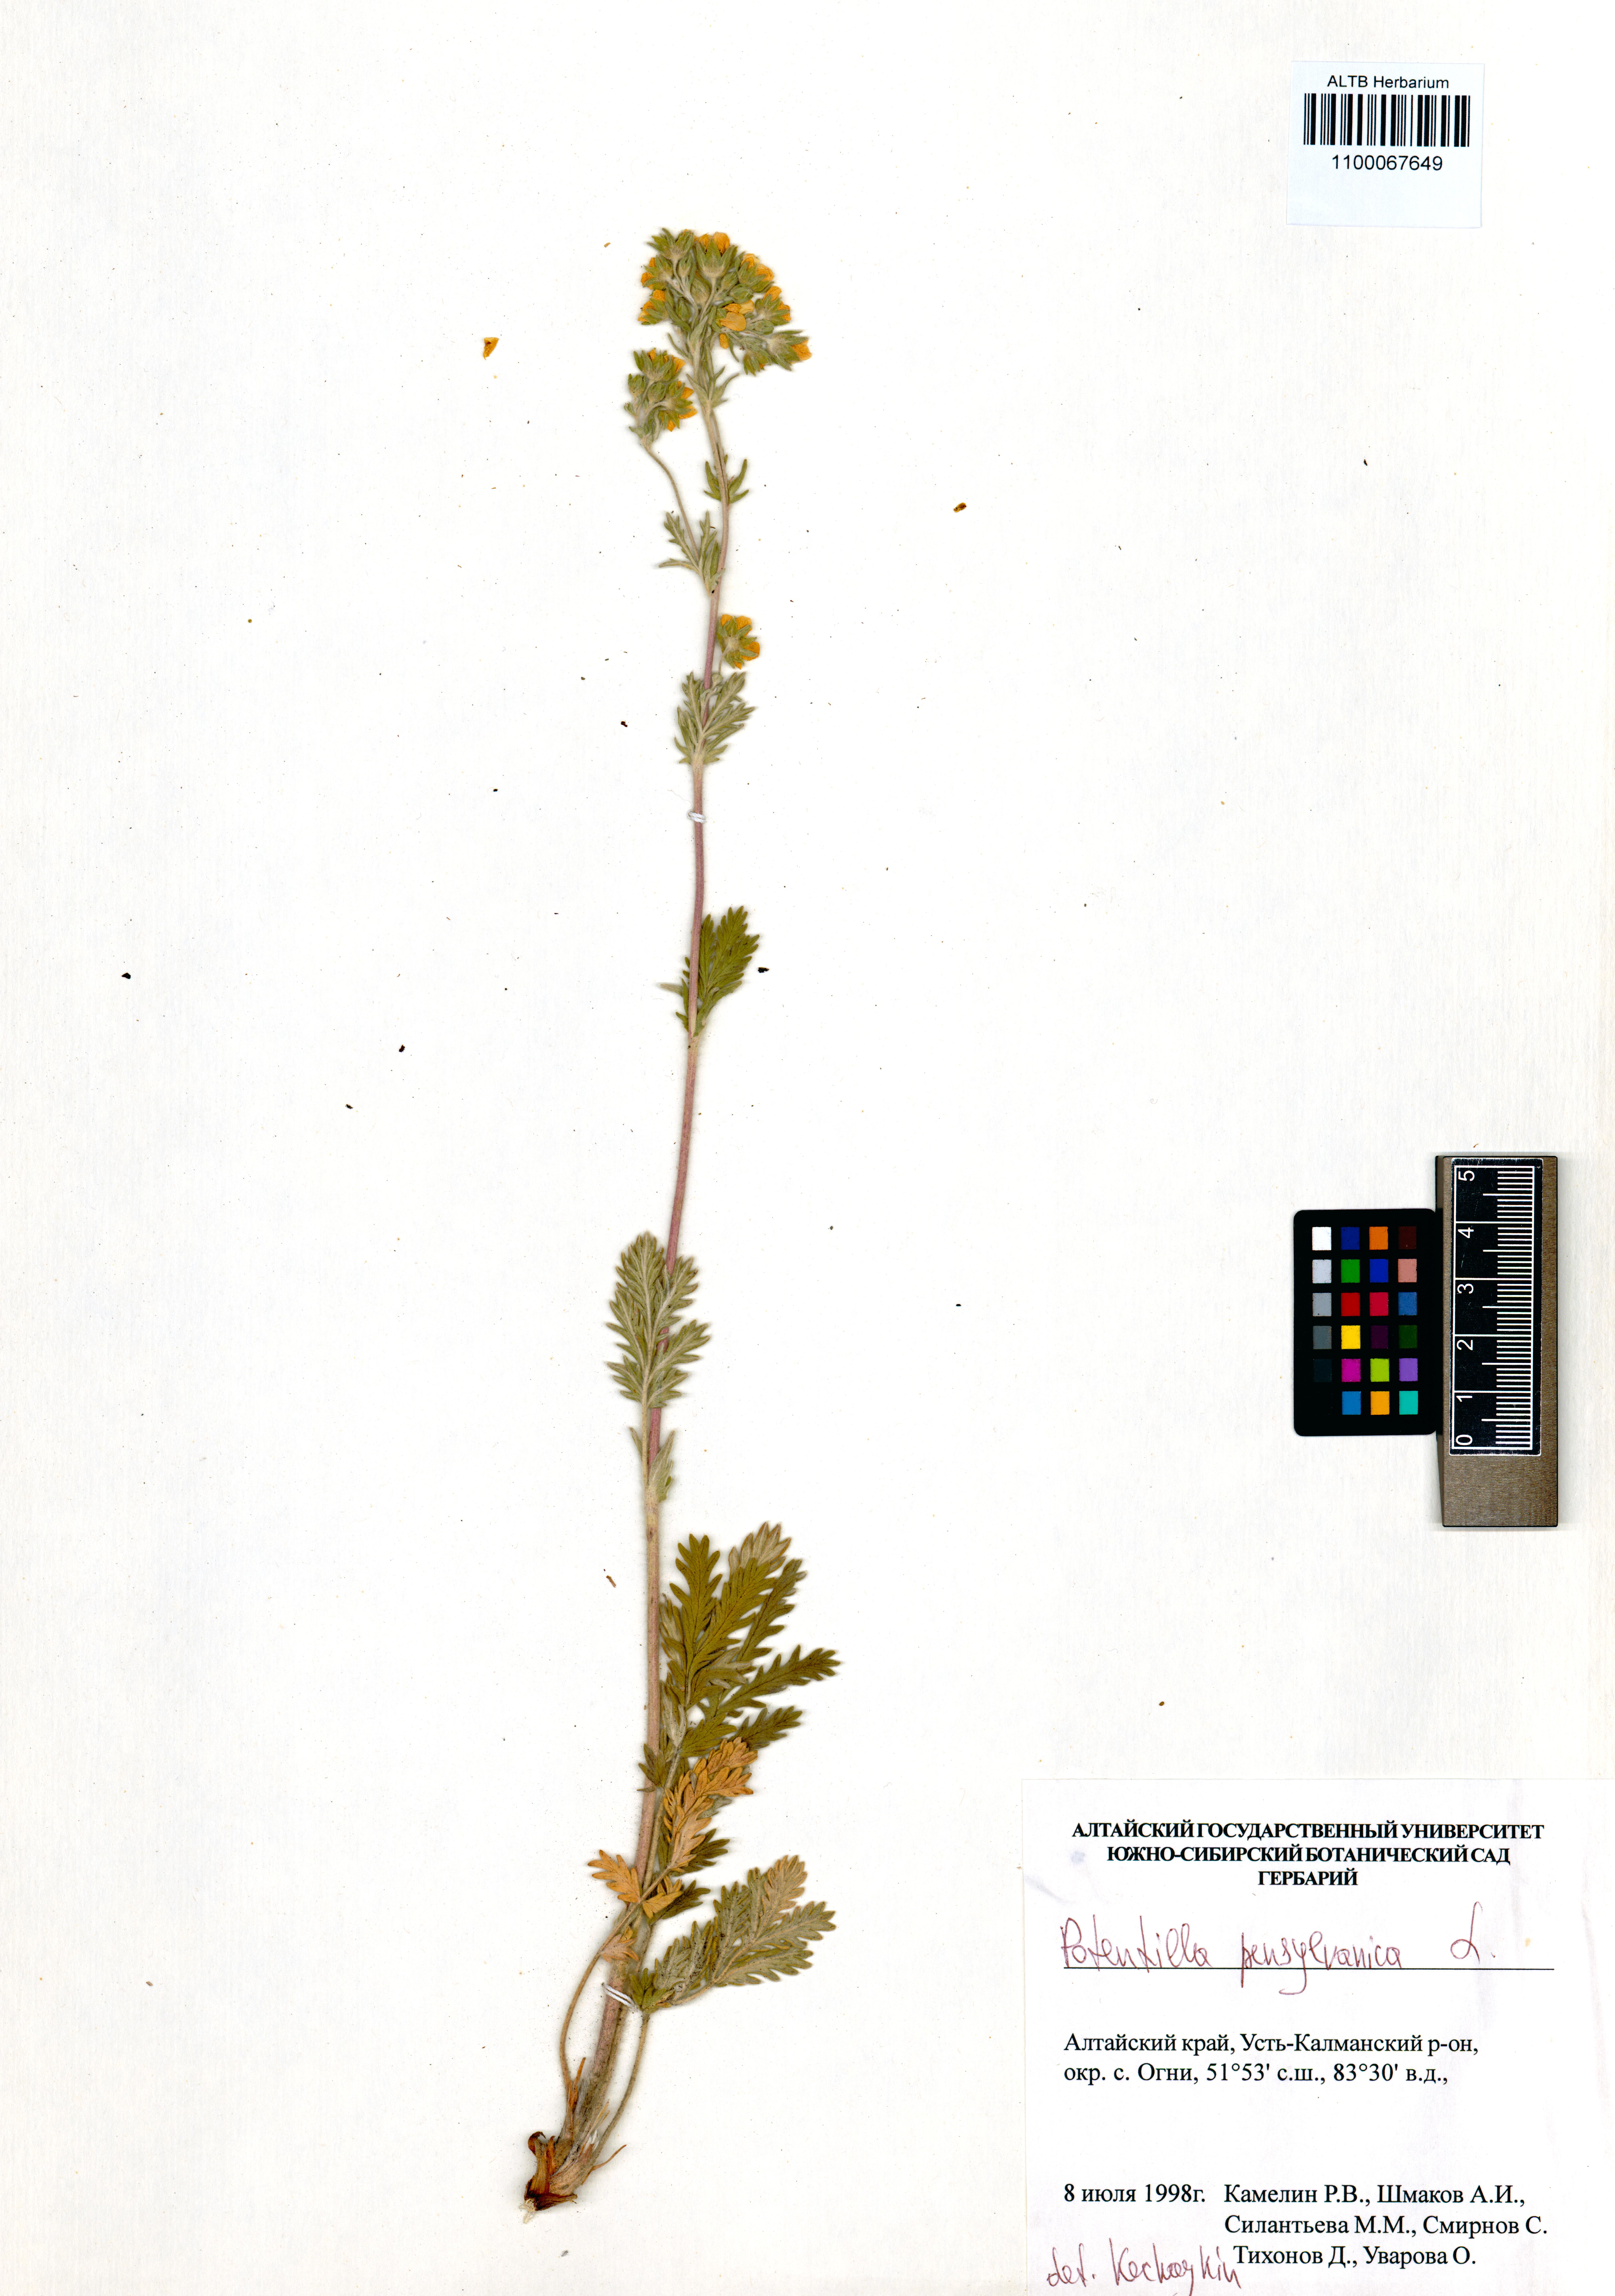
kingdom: Plantae
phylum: Tracheophyta
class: Magnoliopsida
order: Rosales
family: Rosaceae
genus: Potentilla
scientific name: Potentilla pensylvanica
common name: Pennsylvania cinquefoil
